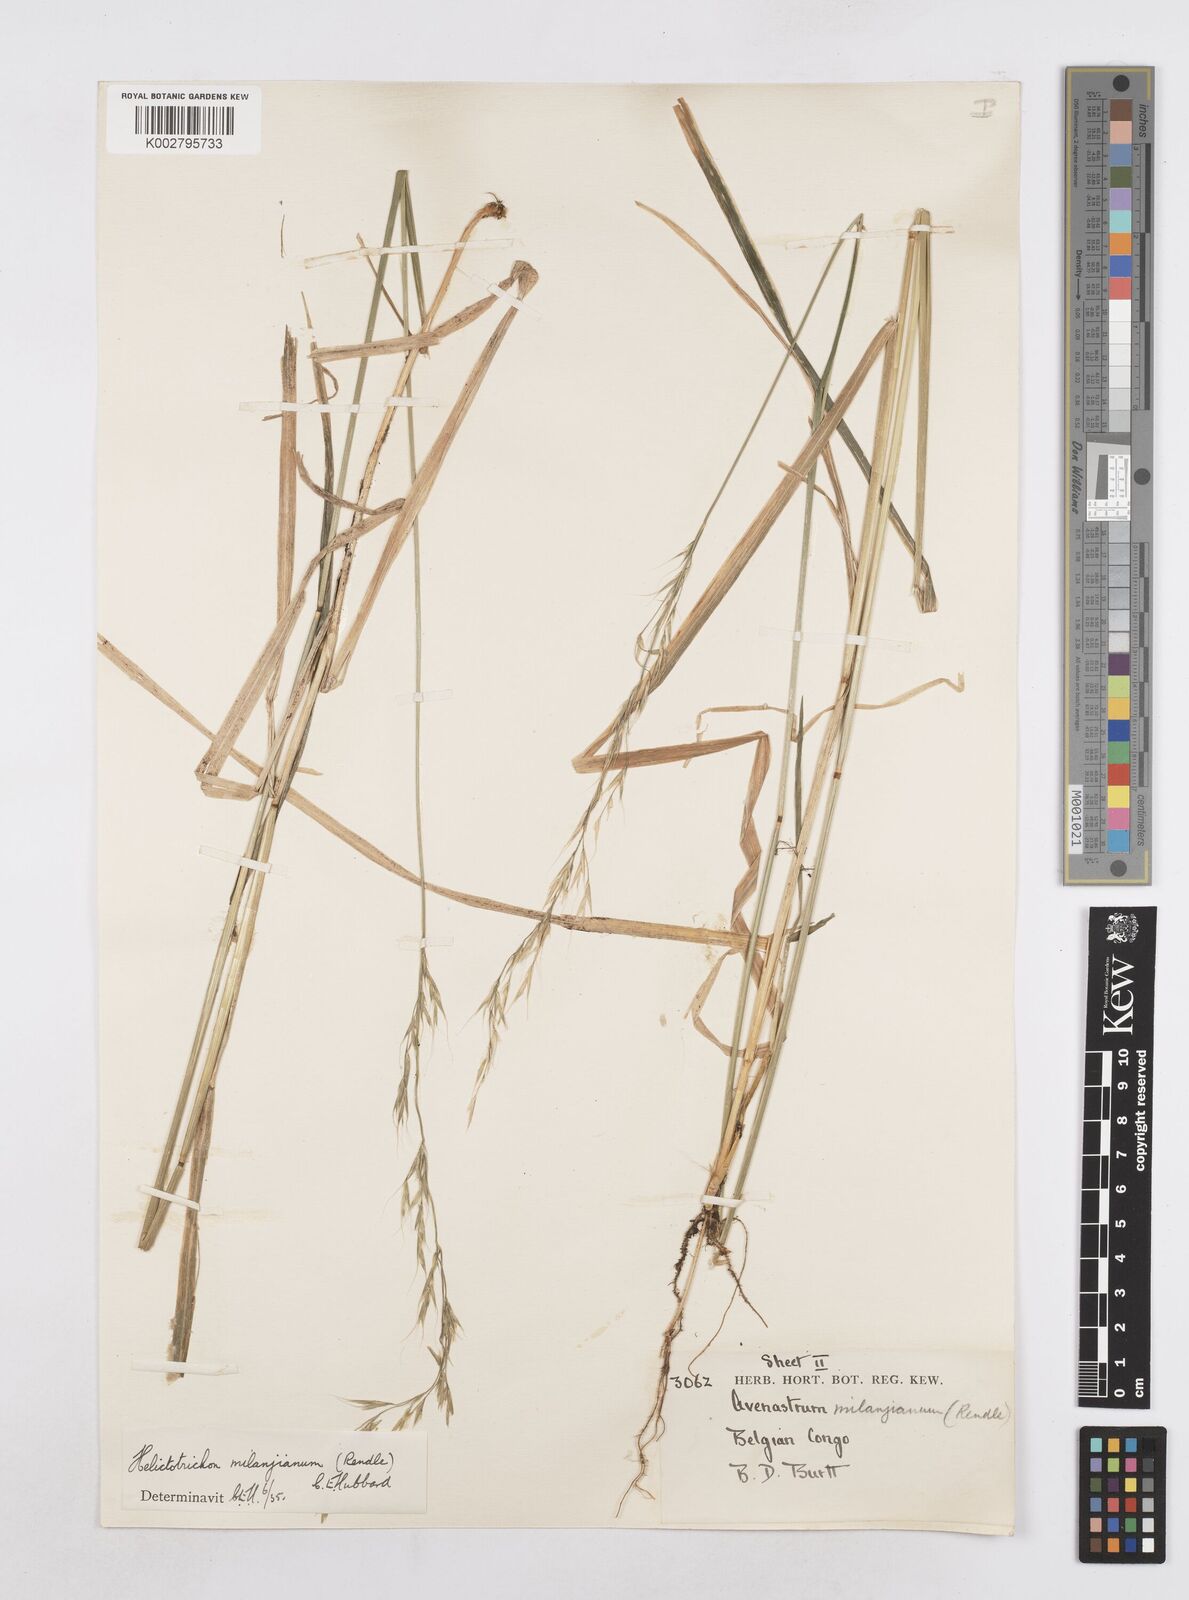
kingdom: Plantae
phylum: Tracheophyta
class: Liliopsida
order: Poales
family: Poaceae
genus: Trisetopsis
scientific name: Trisetopsis milanjiana
